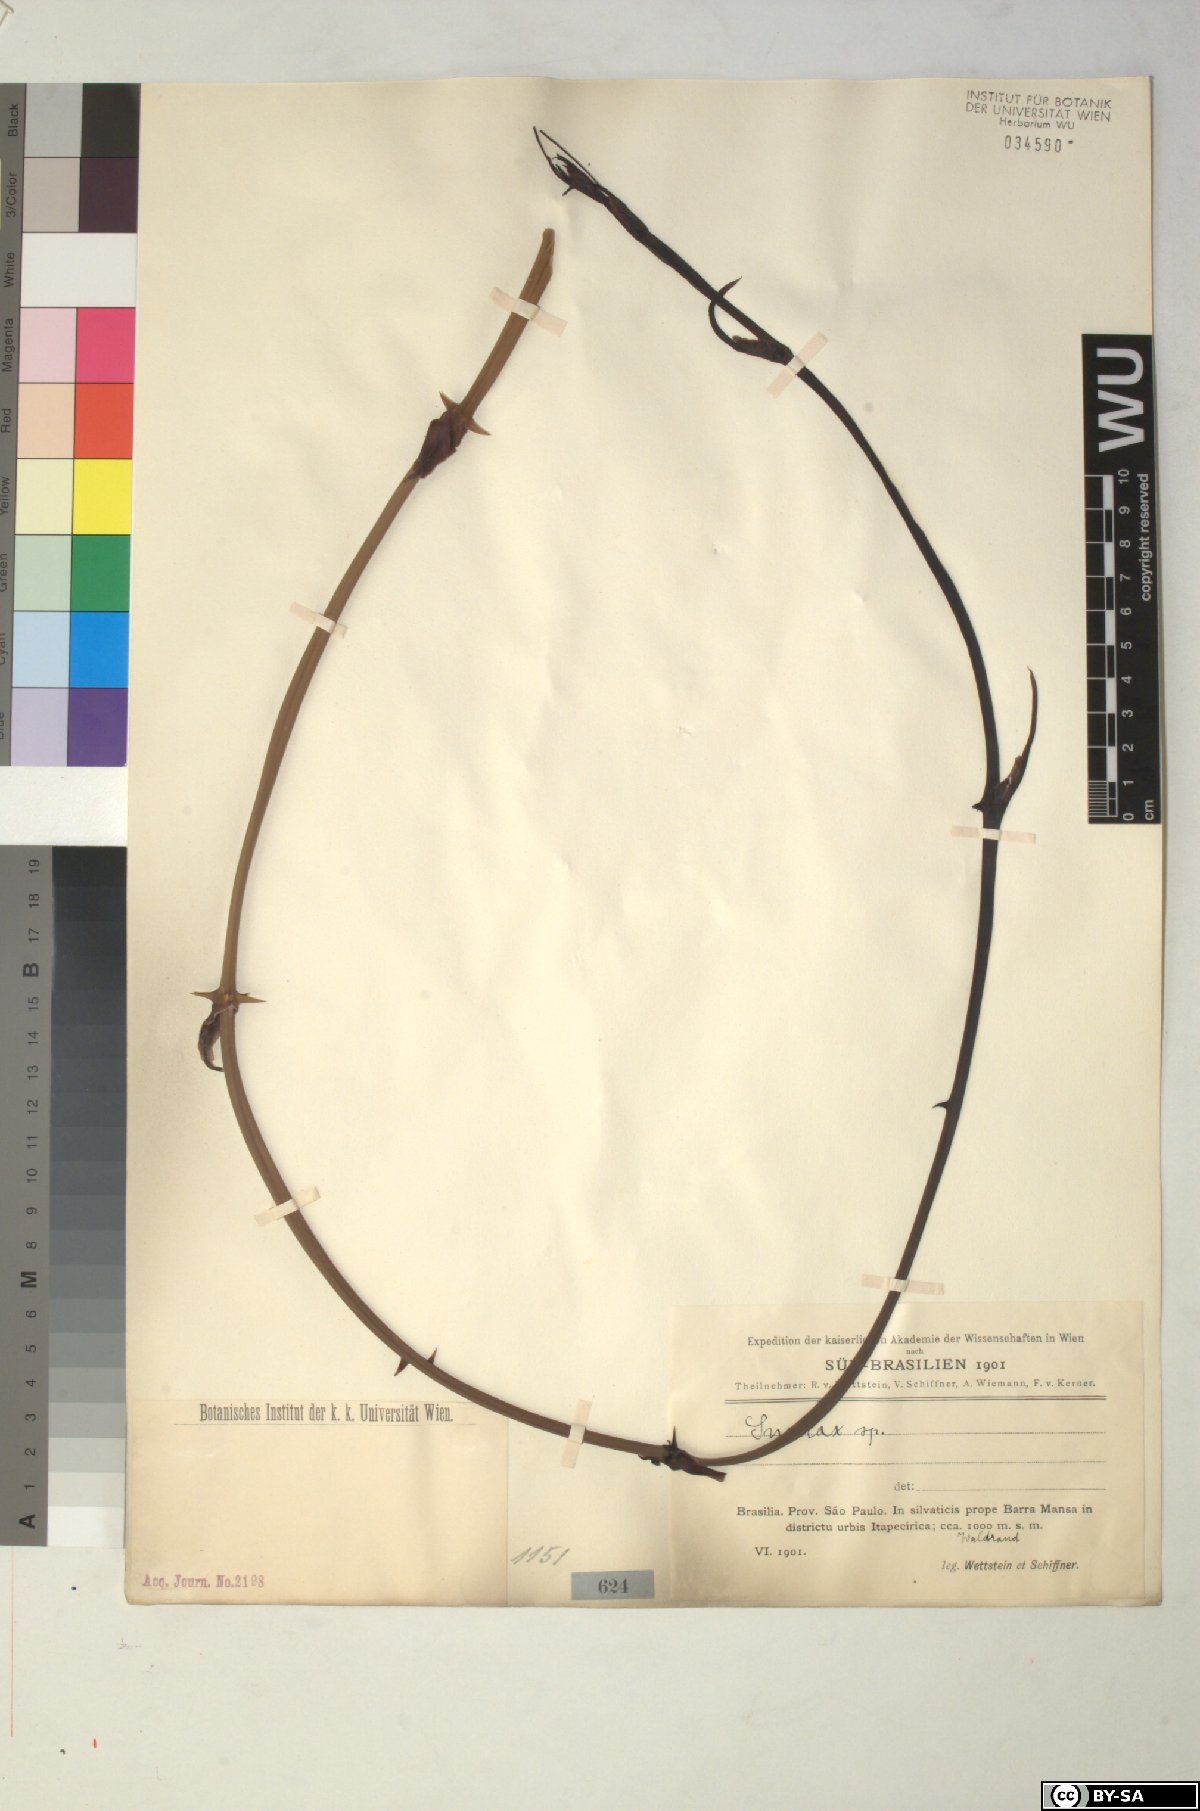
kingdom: Plantae
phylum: Tracheophyta
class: Liliopsida
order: Liliales
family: Smilacaceae
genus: Smilax
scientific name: Smilax
